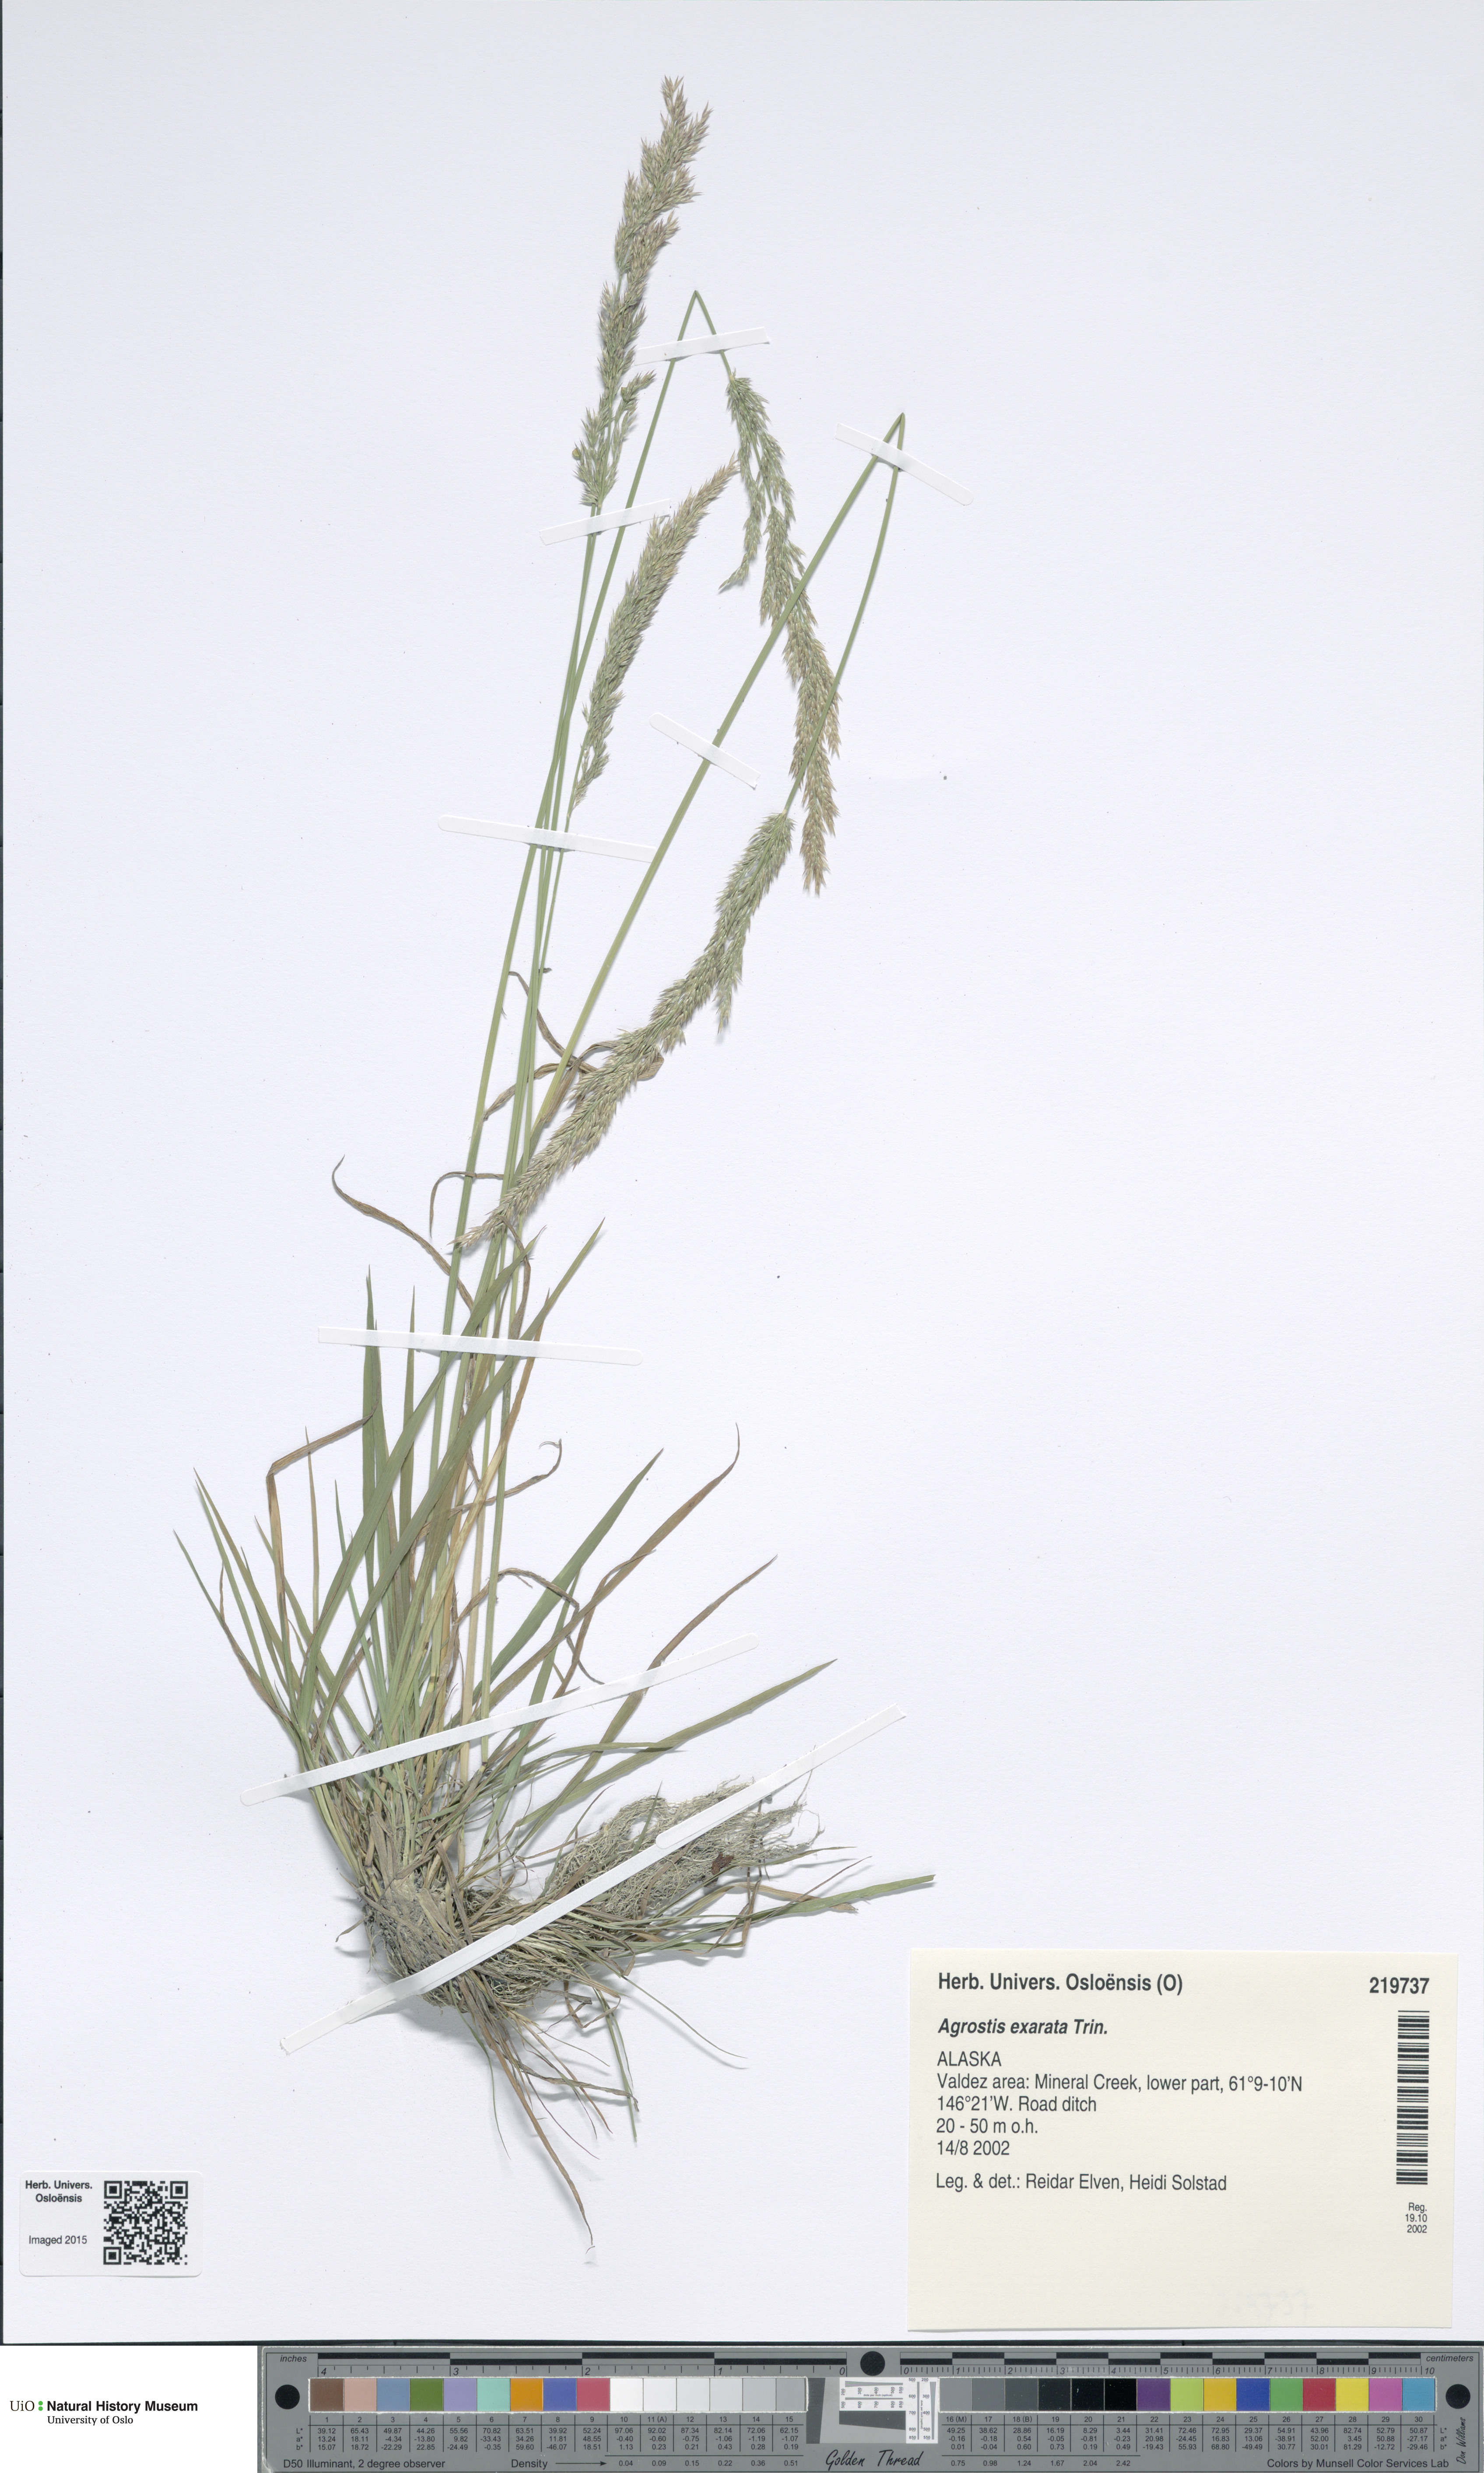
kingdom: Plantae
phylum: Tracheophyta
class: Liliopsida
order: Poales
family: Poaceae
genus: Agrostis
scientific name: Agrostis exarata
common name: Spike bent
